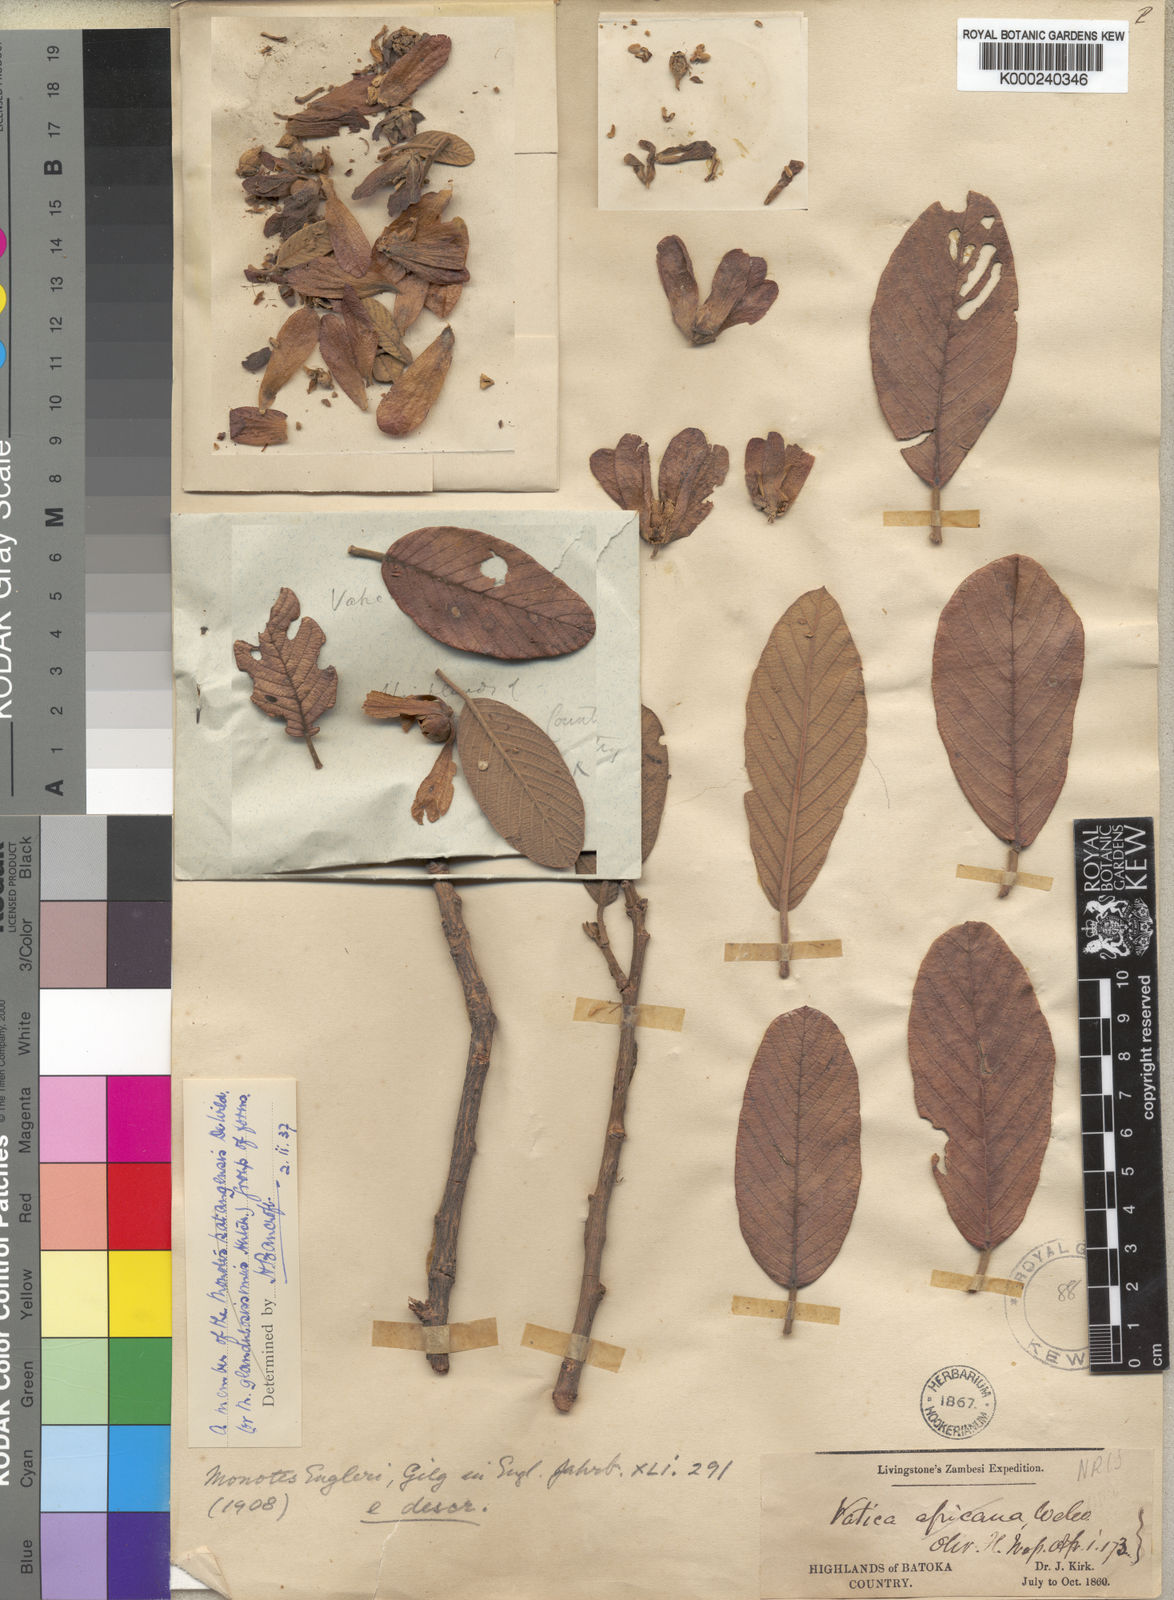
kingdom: Plantae
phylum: Tracheophyta
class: Magnoliopsida
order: Malvales
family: Dipterocarpaceae
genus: Monotes
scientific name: Monotes katangensis
